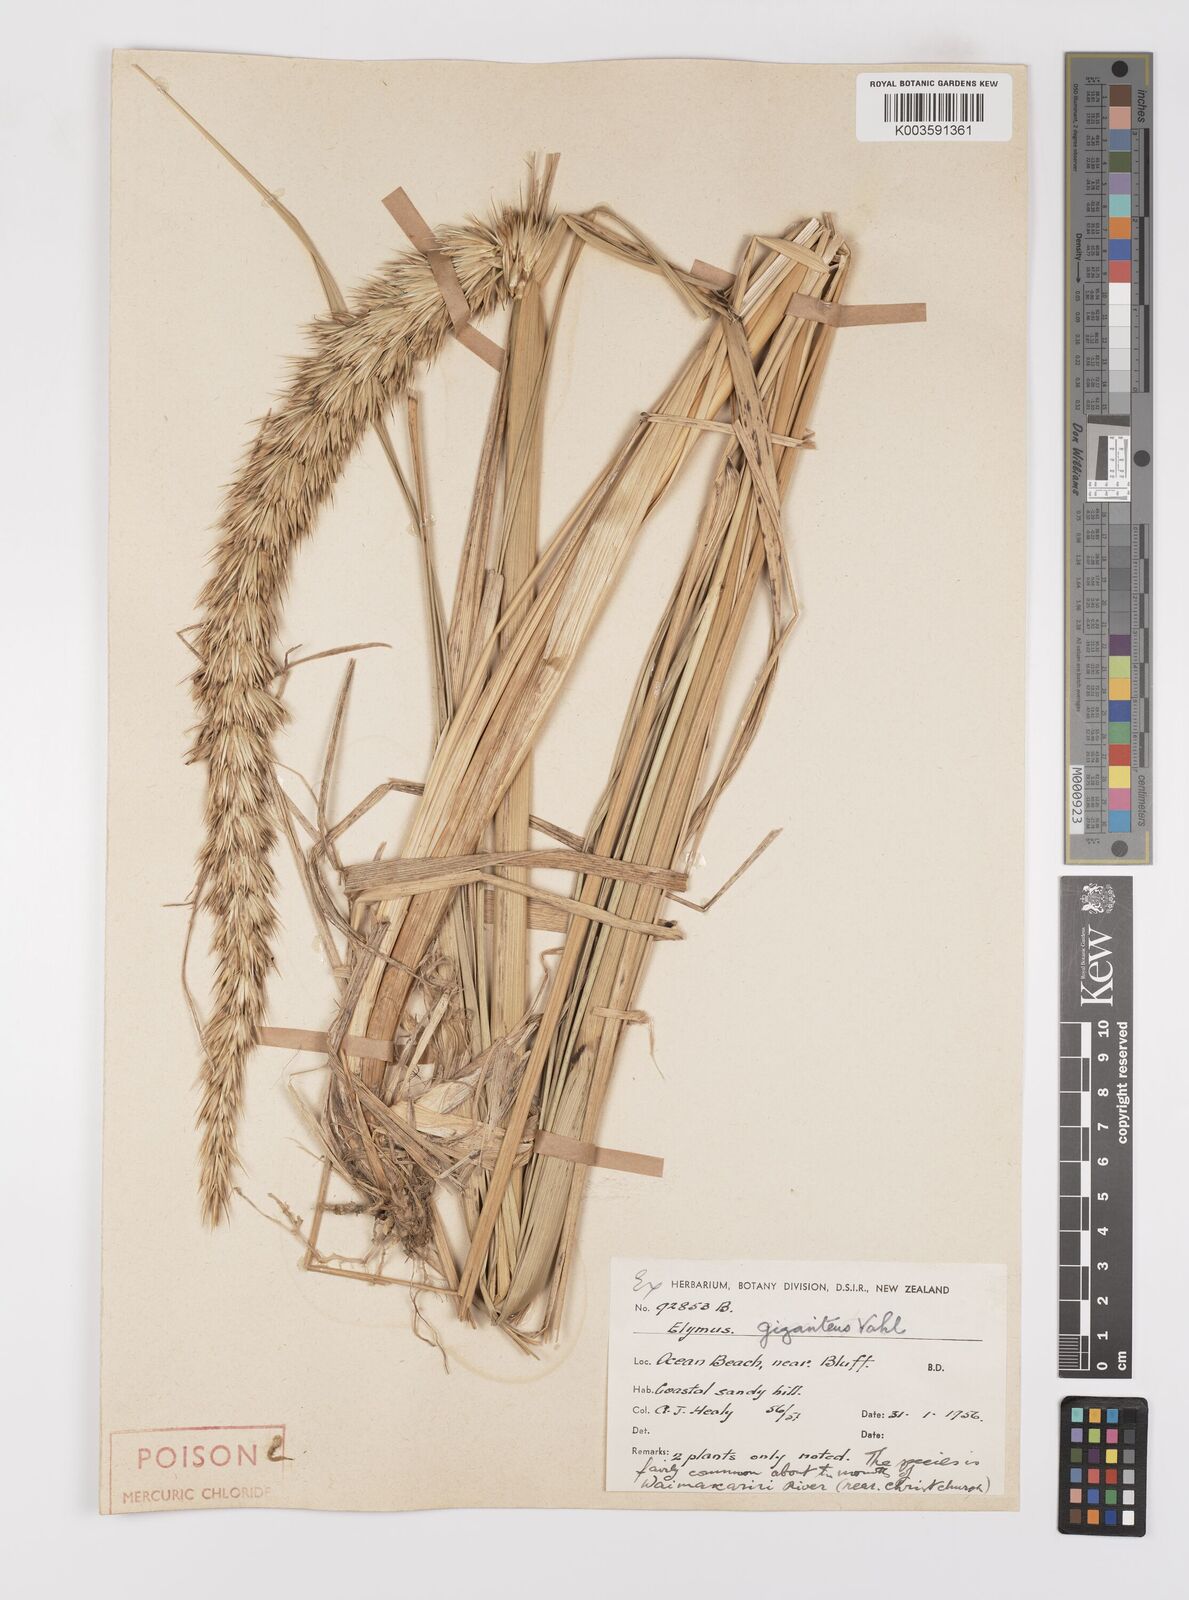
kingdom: Plantae
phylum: Tracheophyta
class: Liliopsida
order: Poales
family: Poaceae
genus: Leymus
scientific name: Leymus racemosus
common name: Mammoth wildrye
